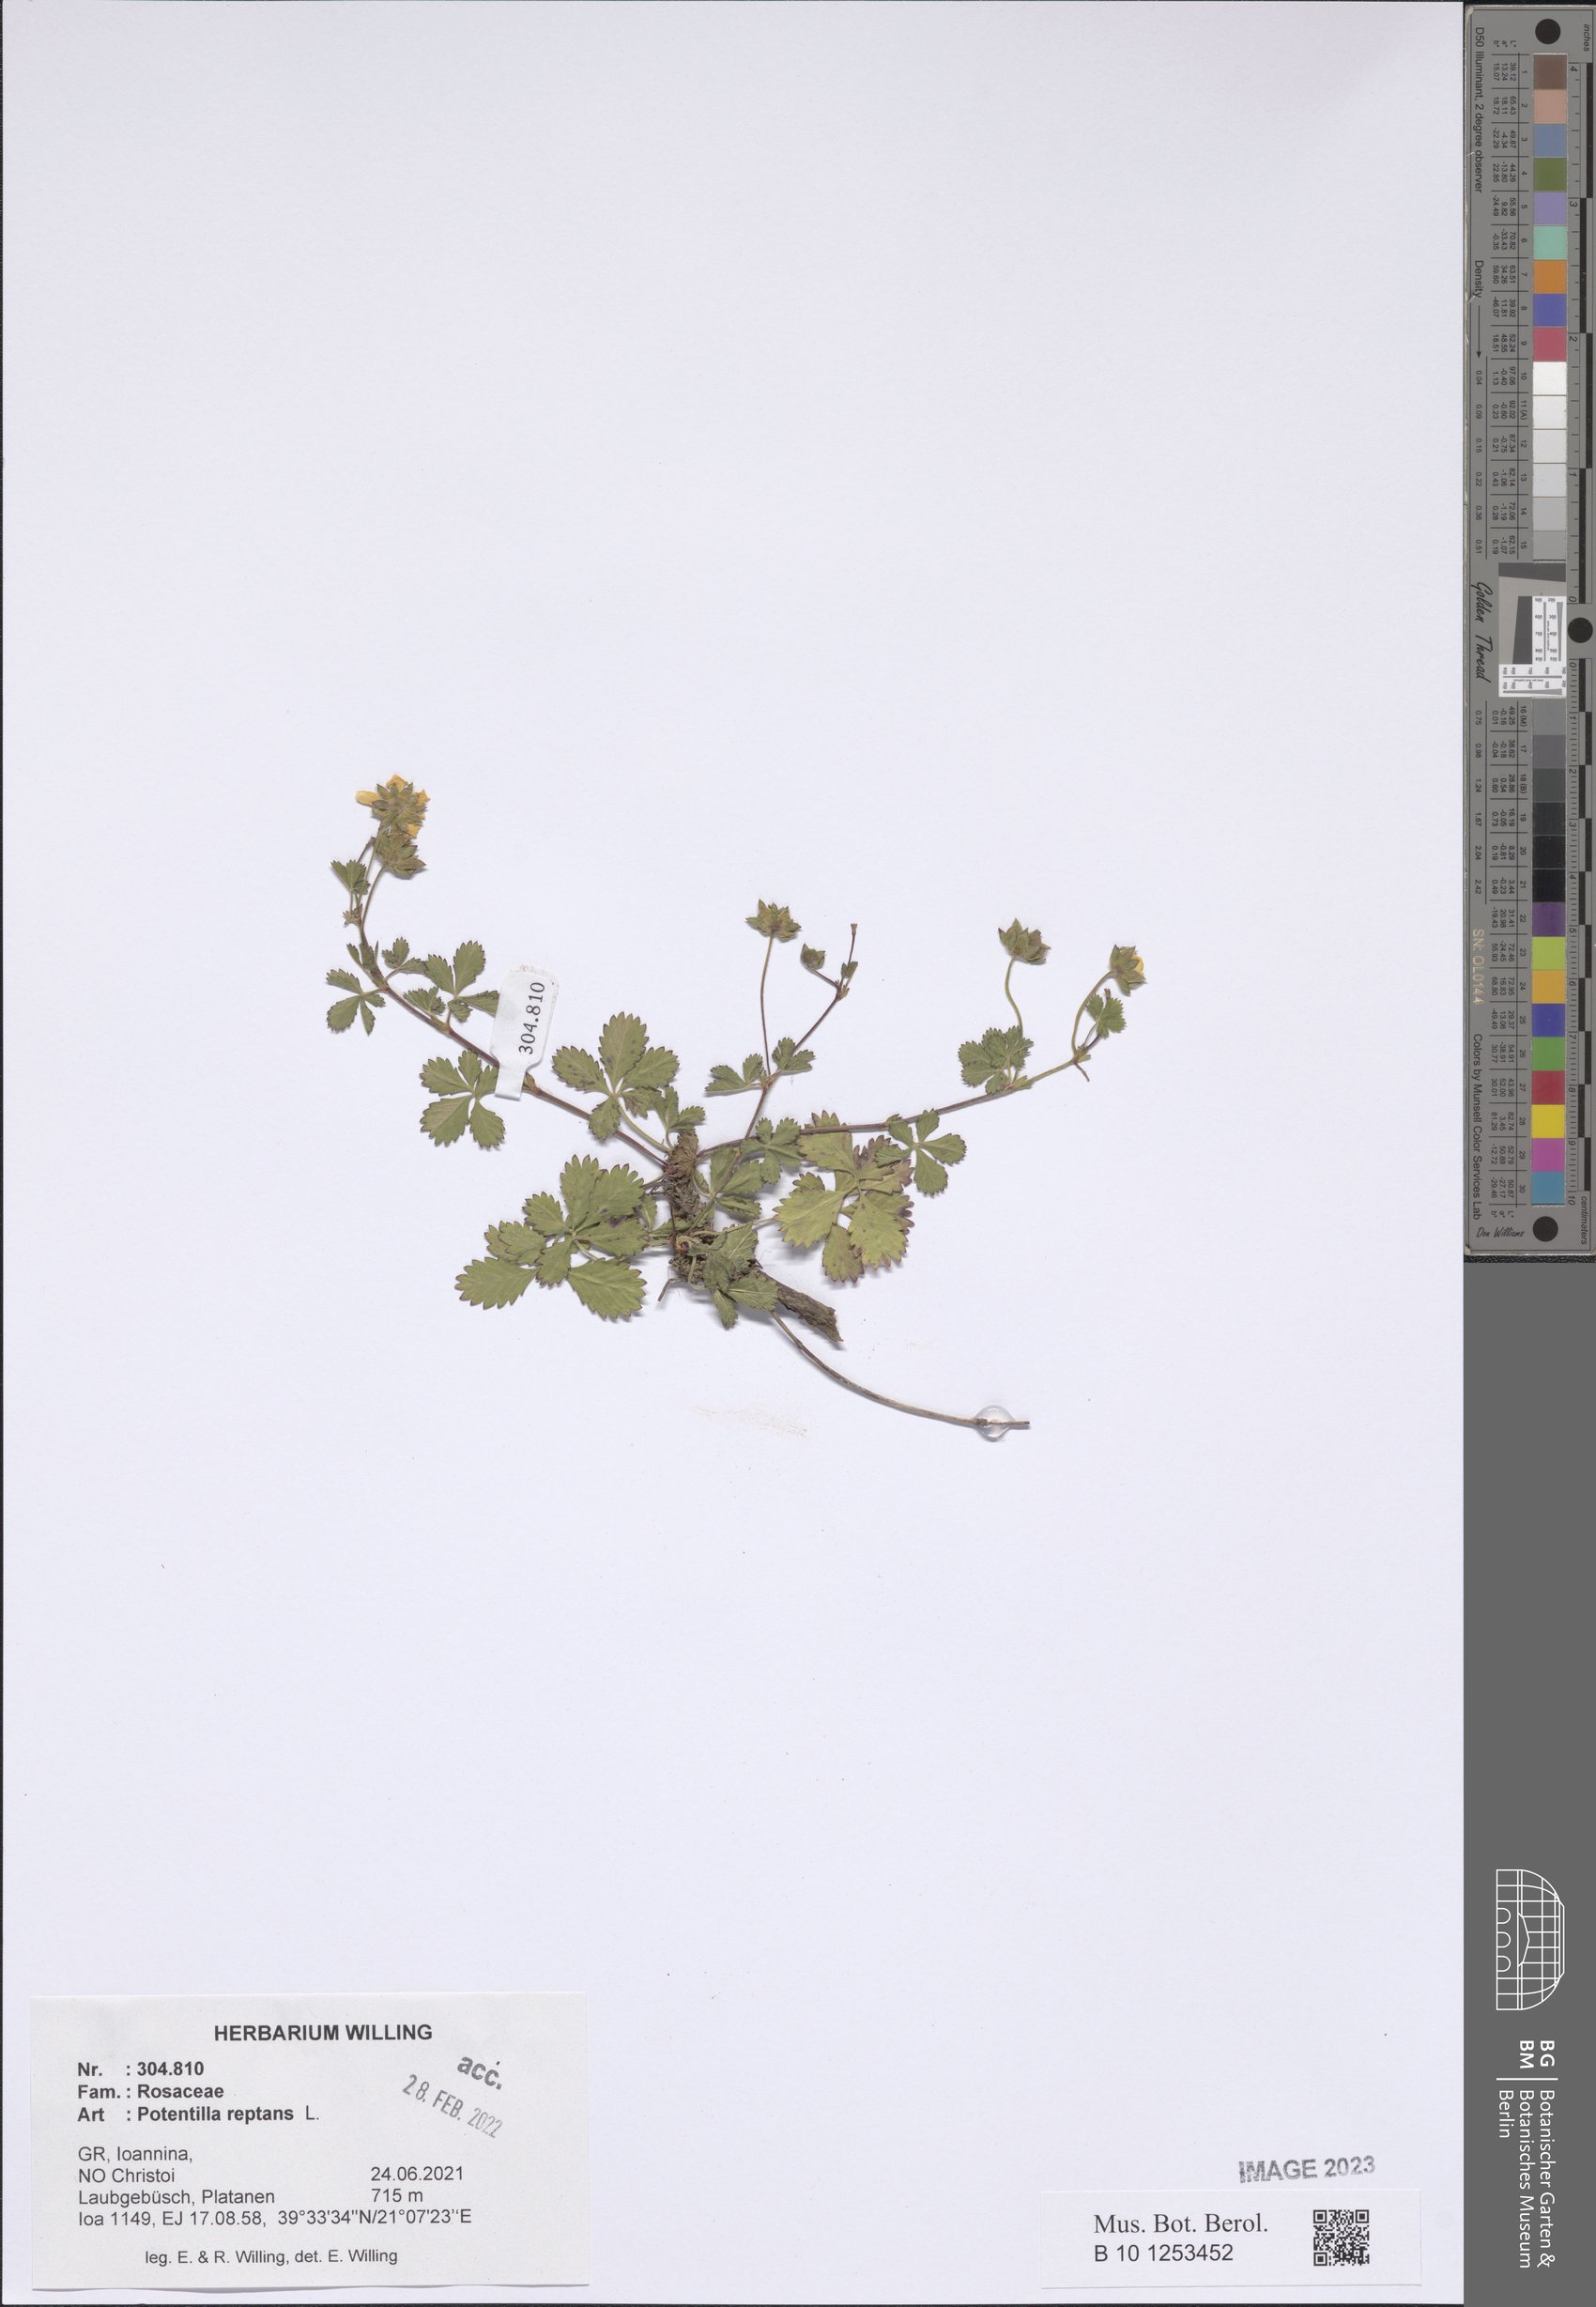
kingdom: Plantae
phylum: Tracheophyta
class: Magnoliopsida
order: Rosales
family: Rosaceae
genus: Potentilla
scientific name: Potentilla reptans
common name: Creeping cinquefoil
